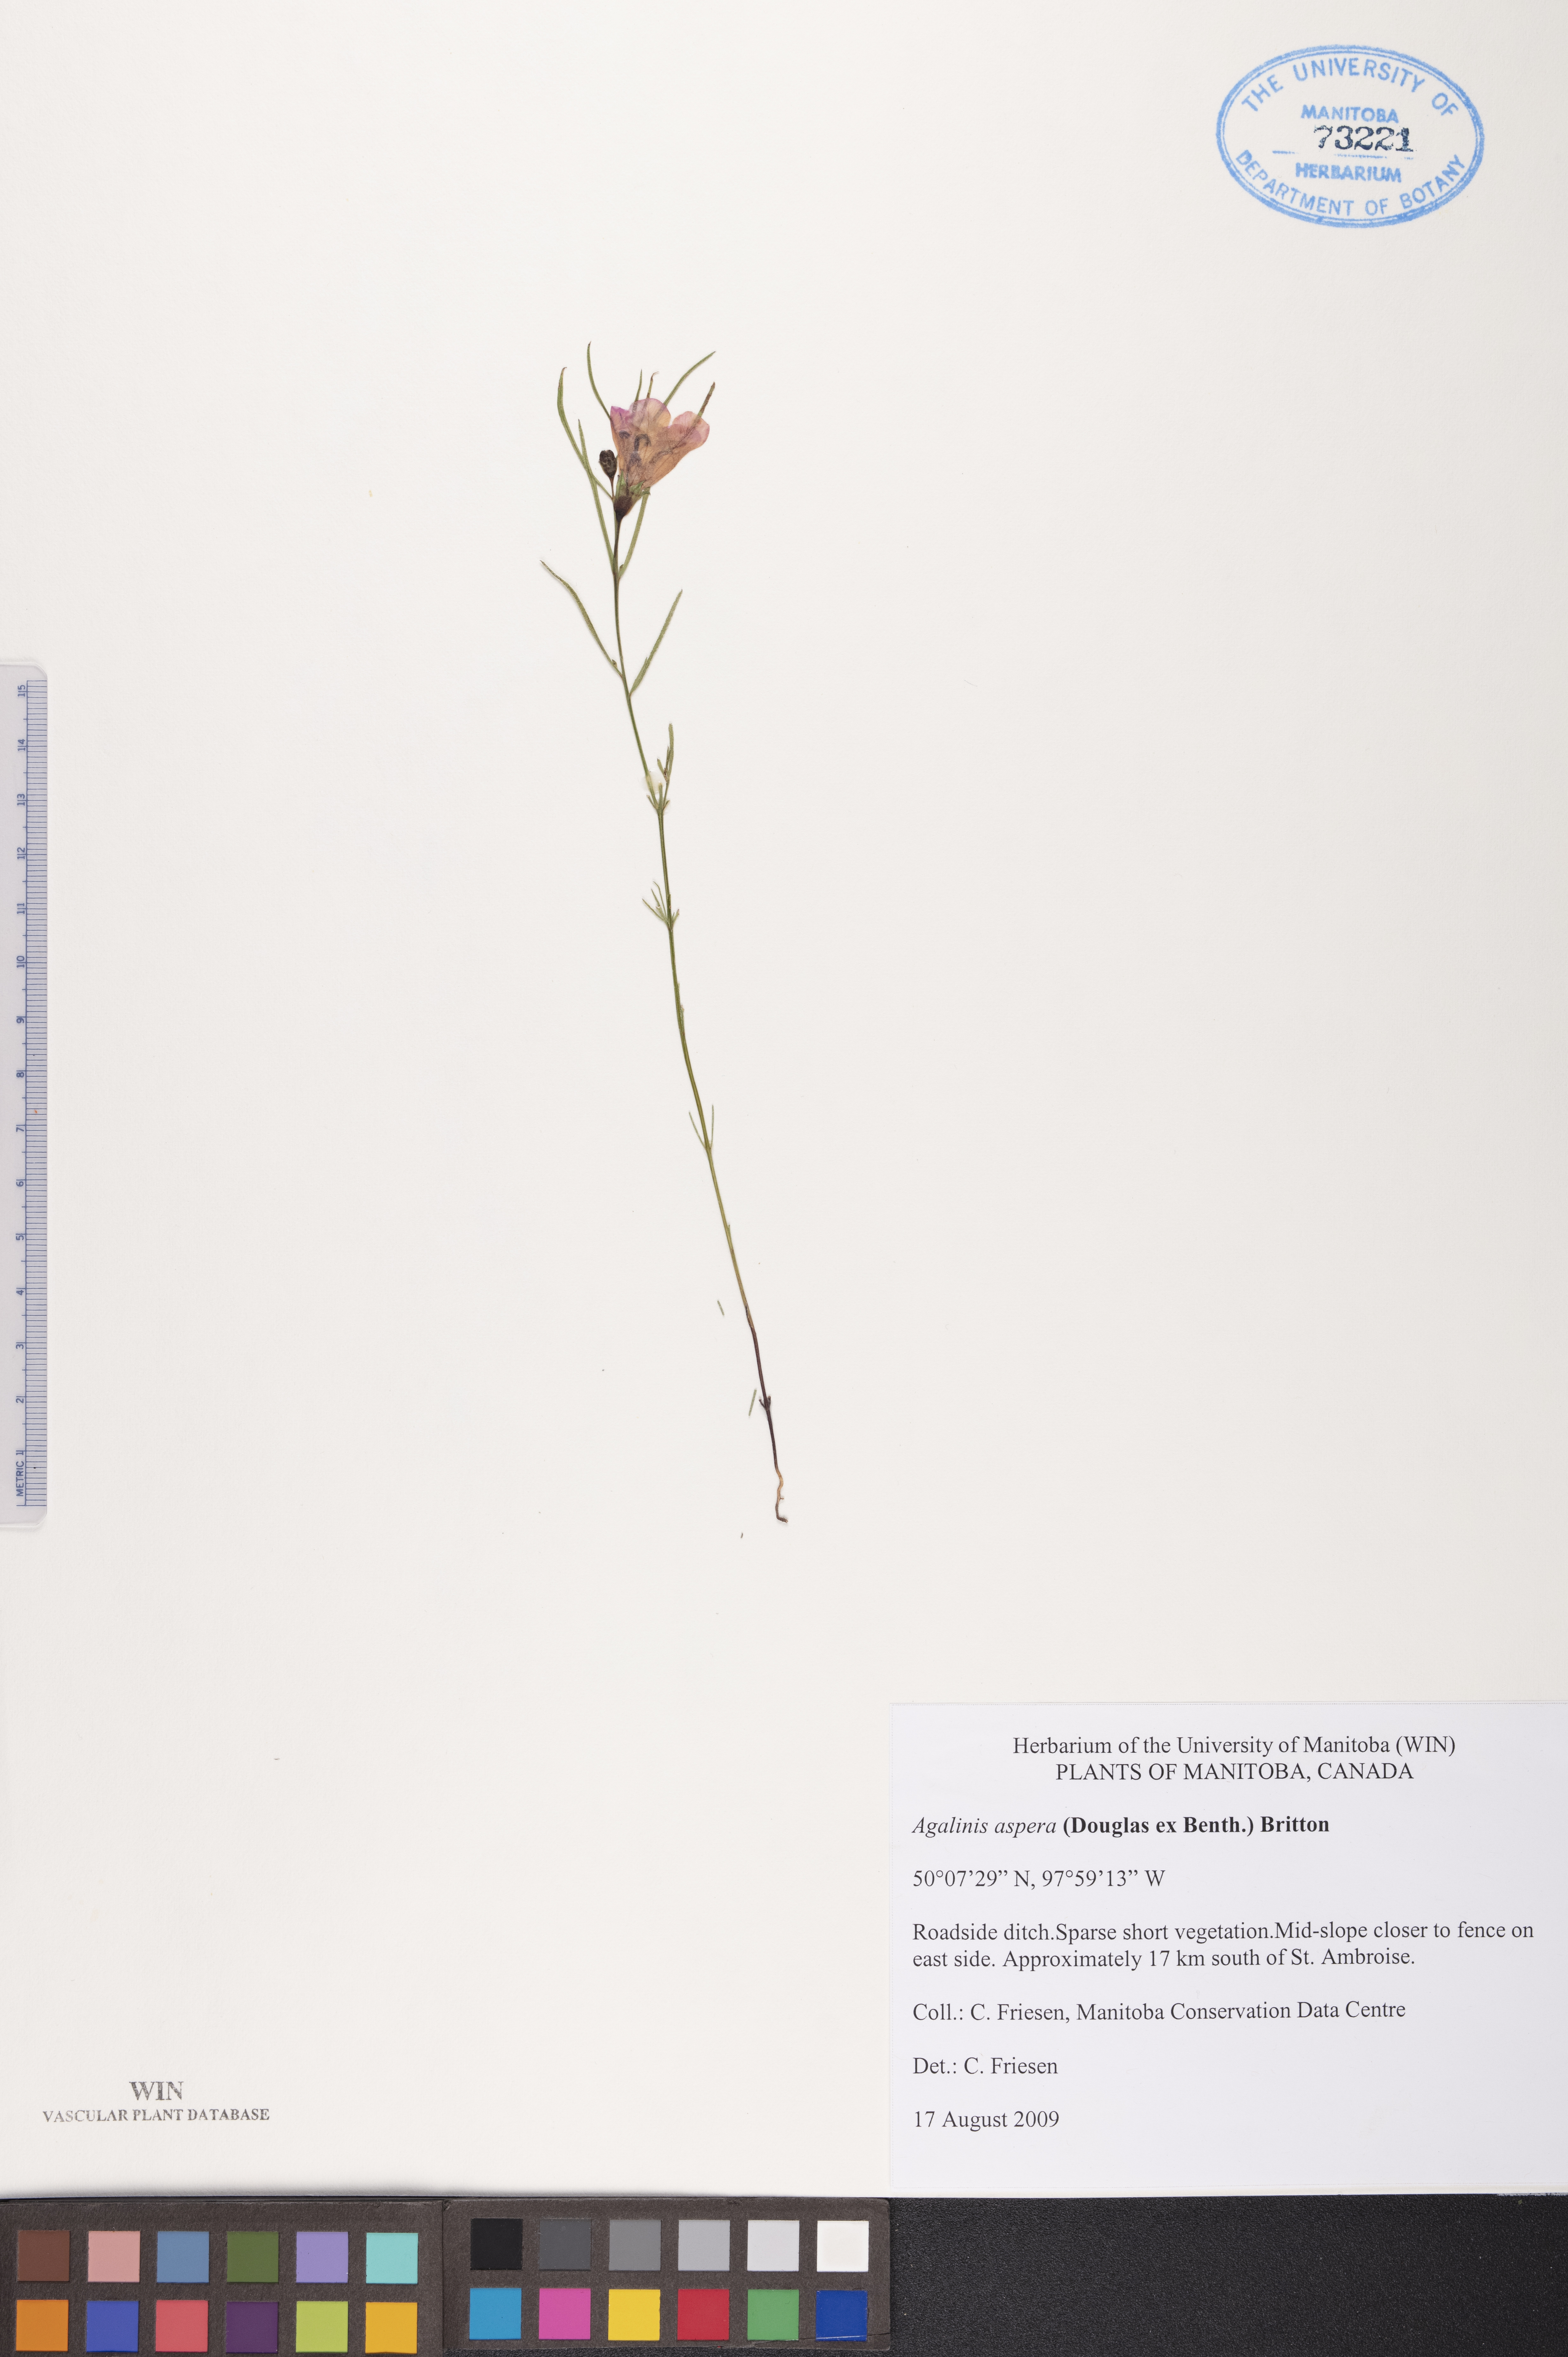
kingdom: Plantae
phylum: Tracheophyta
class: Magnoliopsida
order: Lamiales
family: Orobanchaceae
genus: Agalinis
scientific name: Agalinis aspera
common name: Rough agalinis
